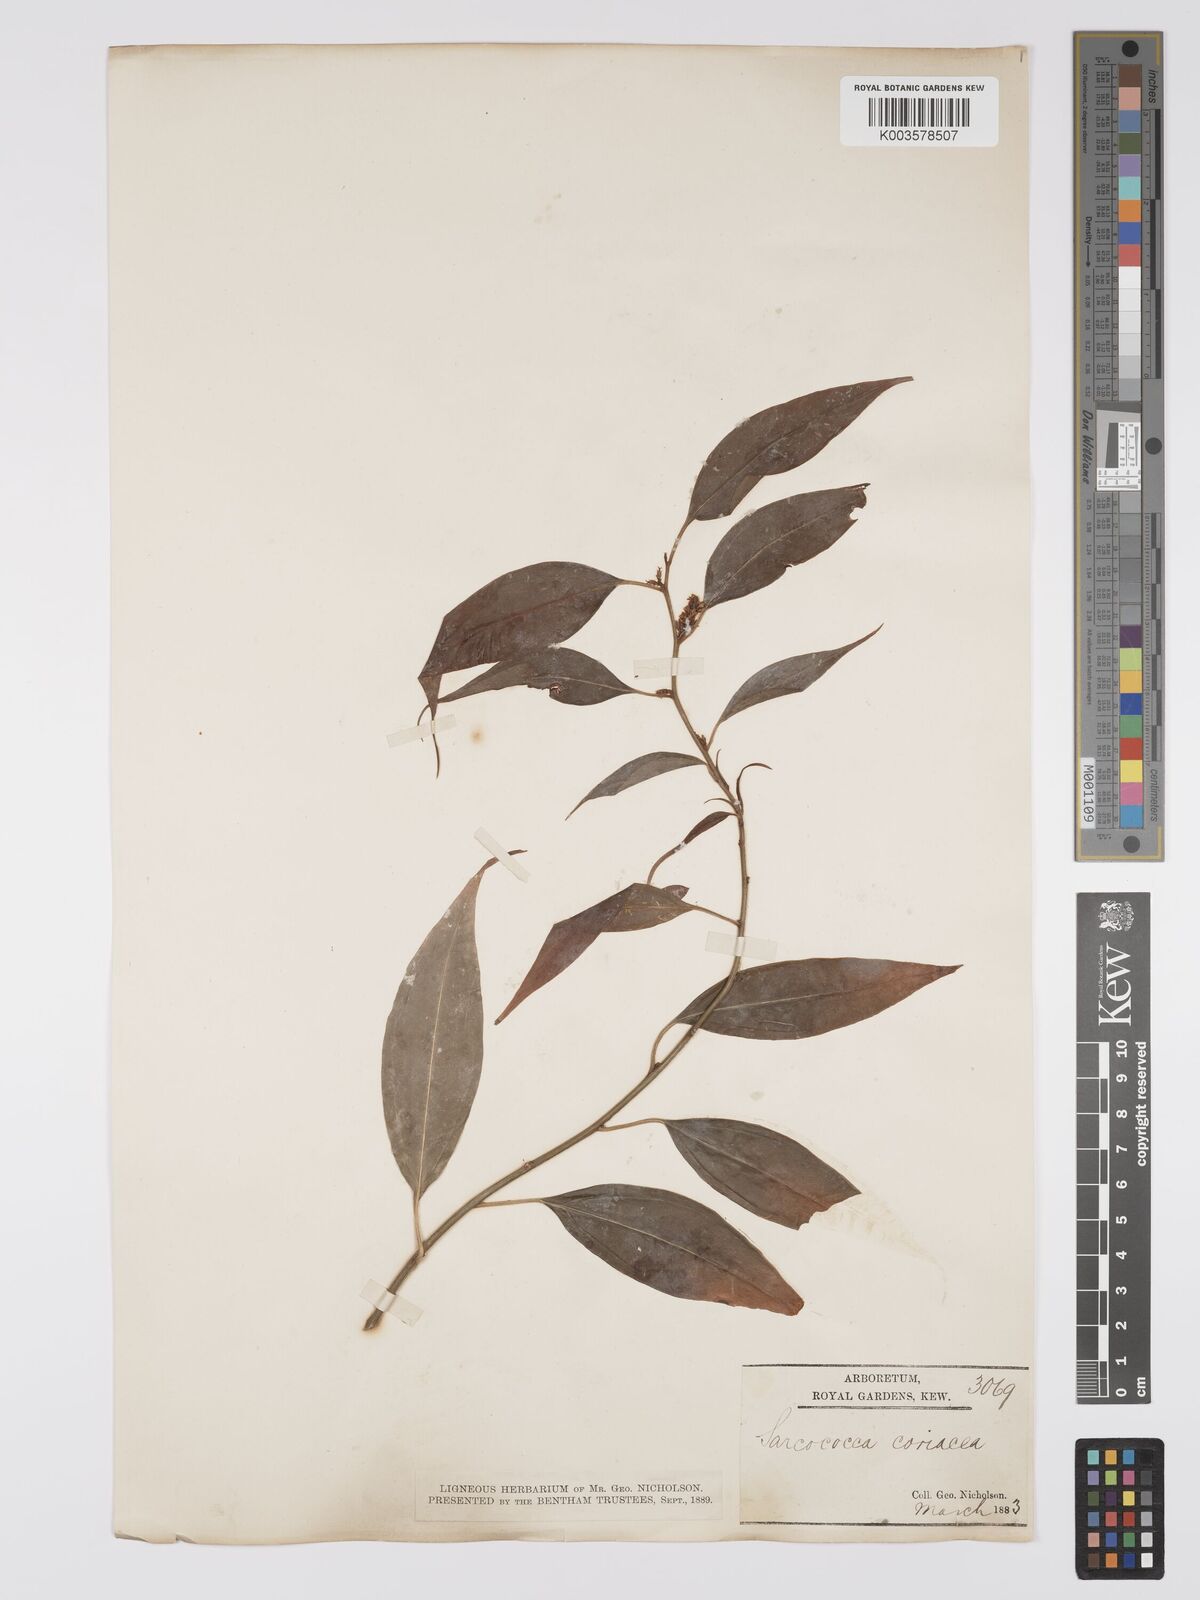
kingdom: Plantae
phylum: Tracheophyta
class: Magnoliopsida
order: Buxales
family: Buxaceae
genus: Sarcococca
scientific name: Sarcococca coriacea
